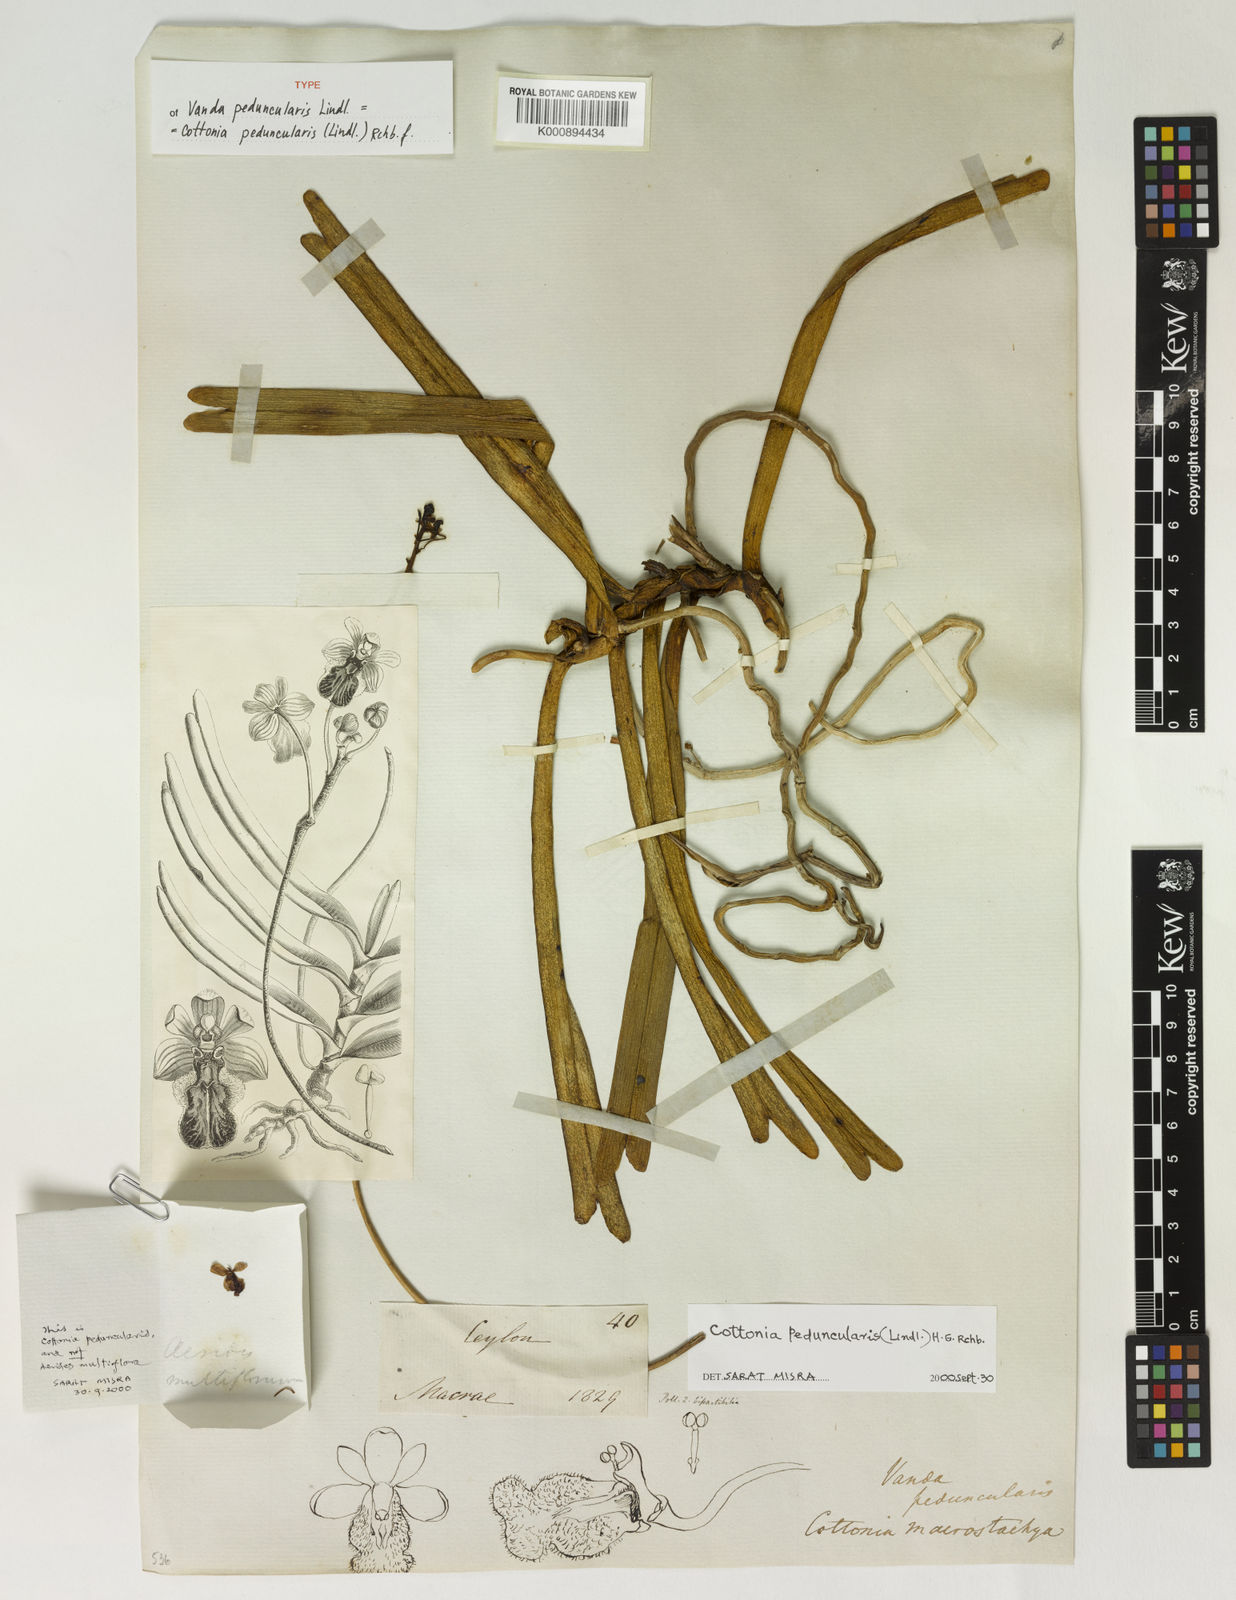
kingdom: Plantae
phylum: Tracheophyta
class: Liliopsida
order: Asparagales
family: Orchidaceae
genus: Cottonia
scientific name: Cottonia peduncularis
